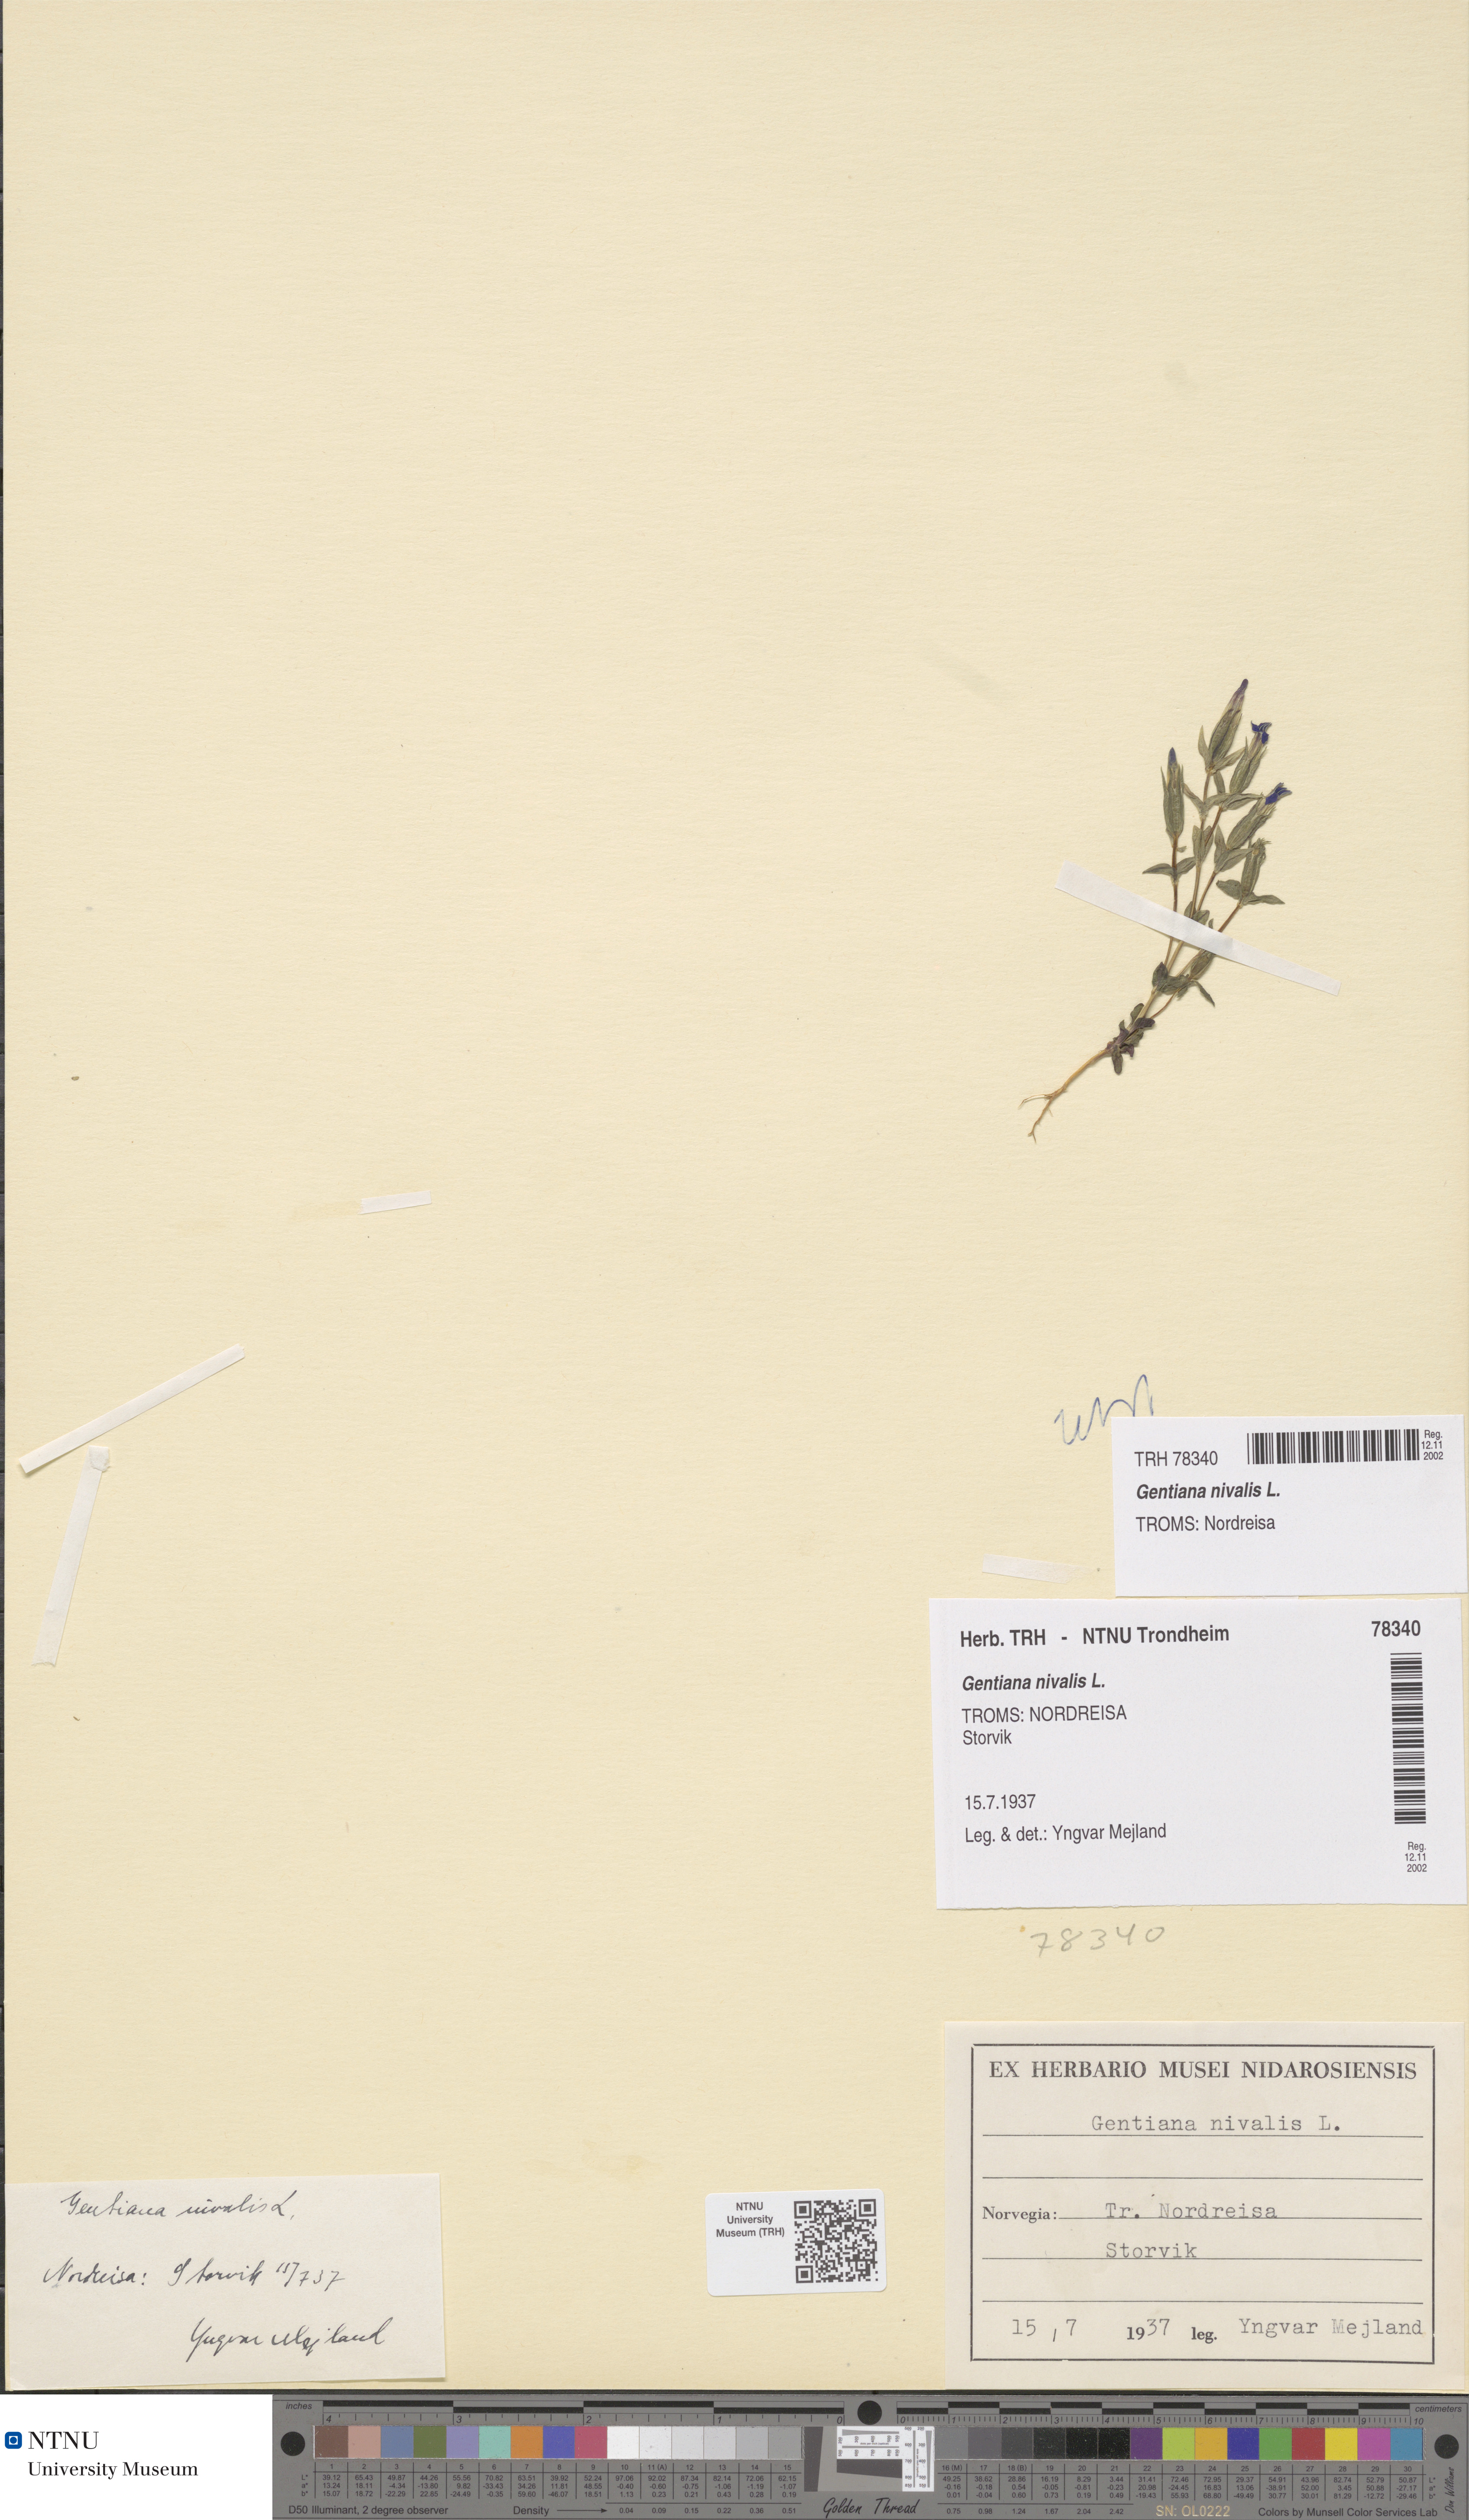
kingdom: Plantae
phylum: Tracheophyta
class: Magnoliopsida
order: Gentianales
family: Gentianaceae
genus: Gentiana
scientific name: Gentiana nivalis
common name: Alpine gentian
